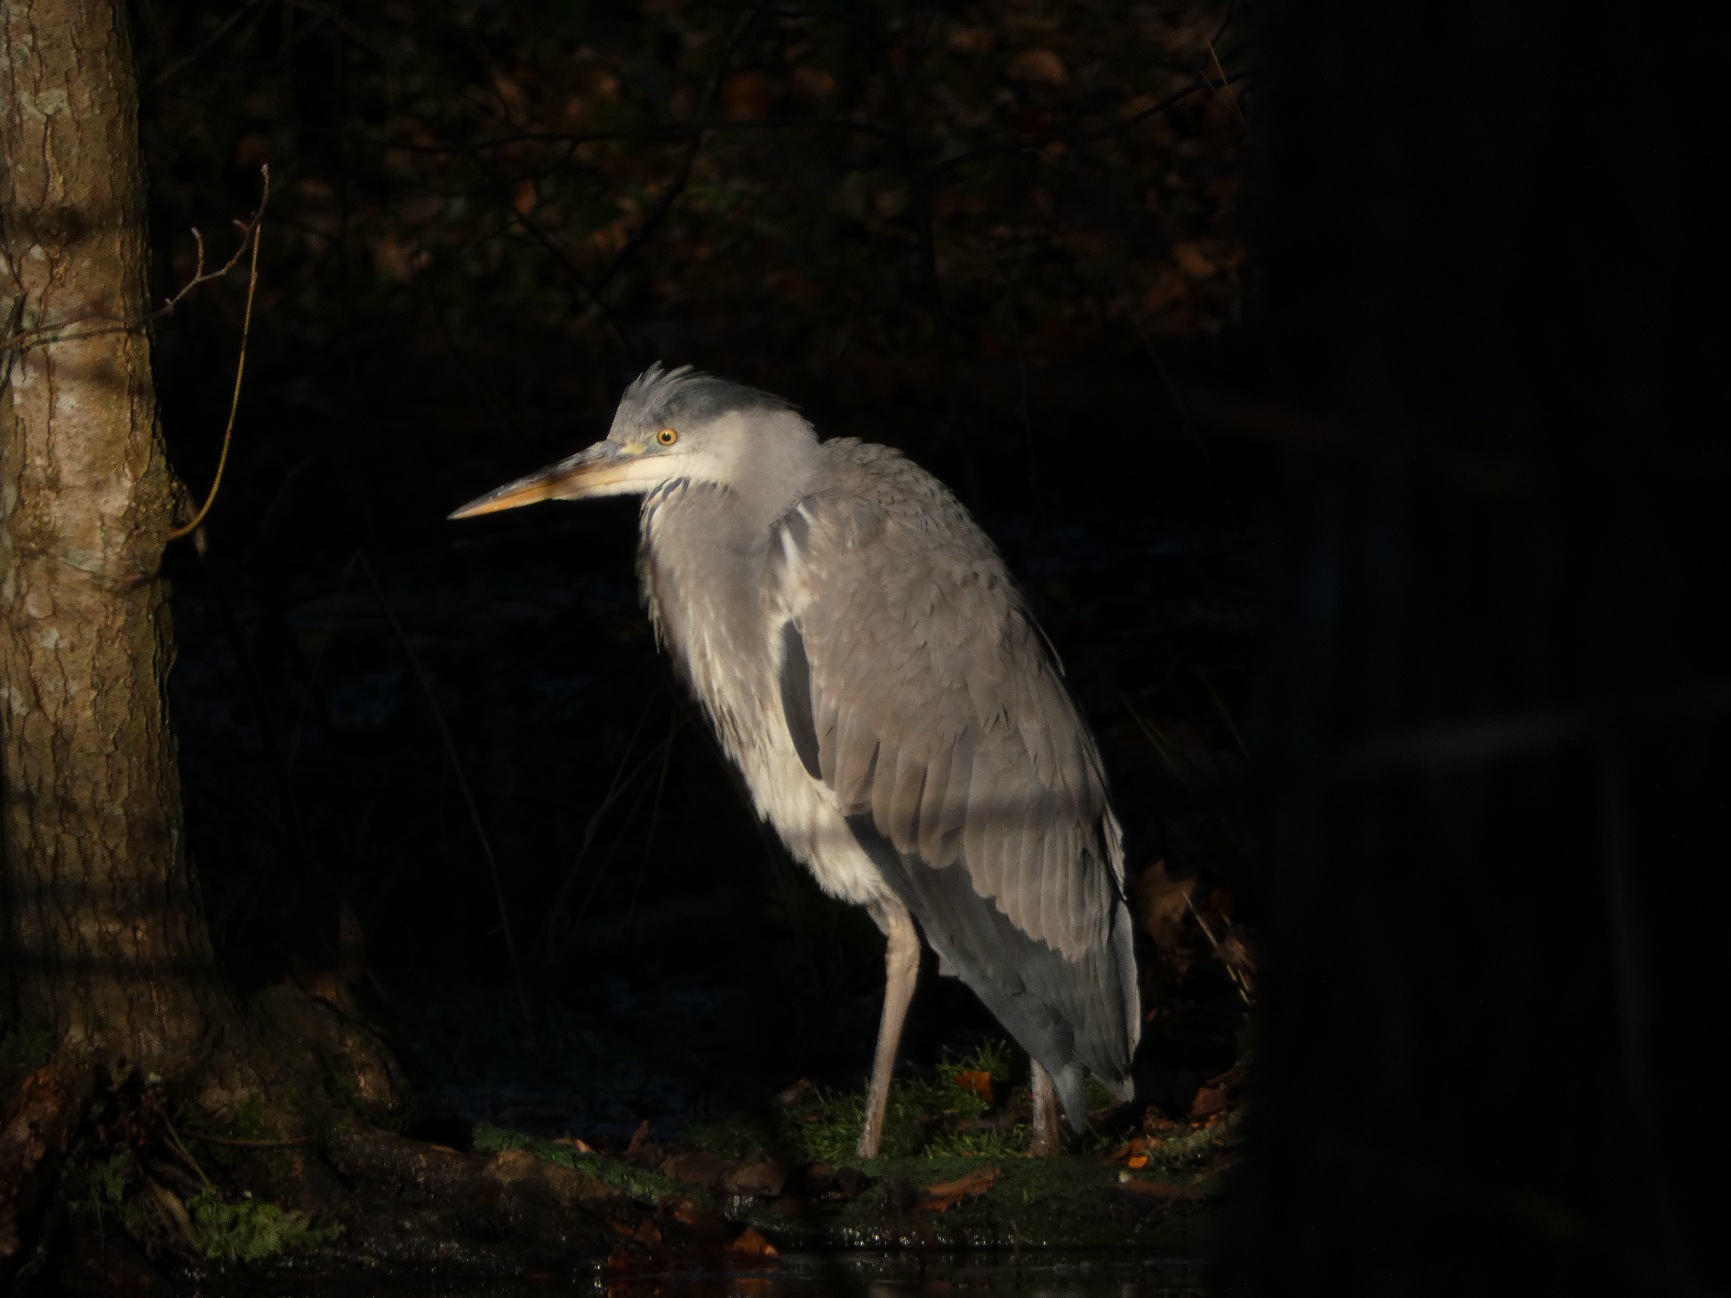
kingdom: Animalia
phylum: Chordata
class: Aves
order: Pelecaniformes
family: Ardeidae
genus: Ardea
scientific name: Ardea cinerea
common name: Fiskehejre
